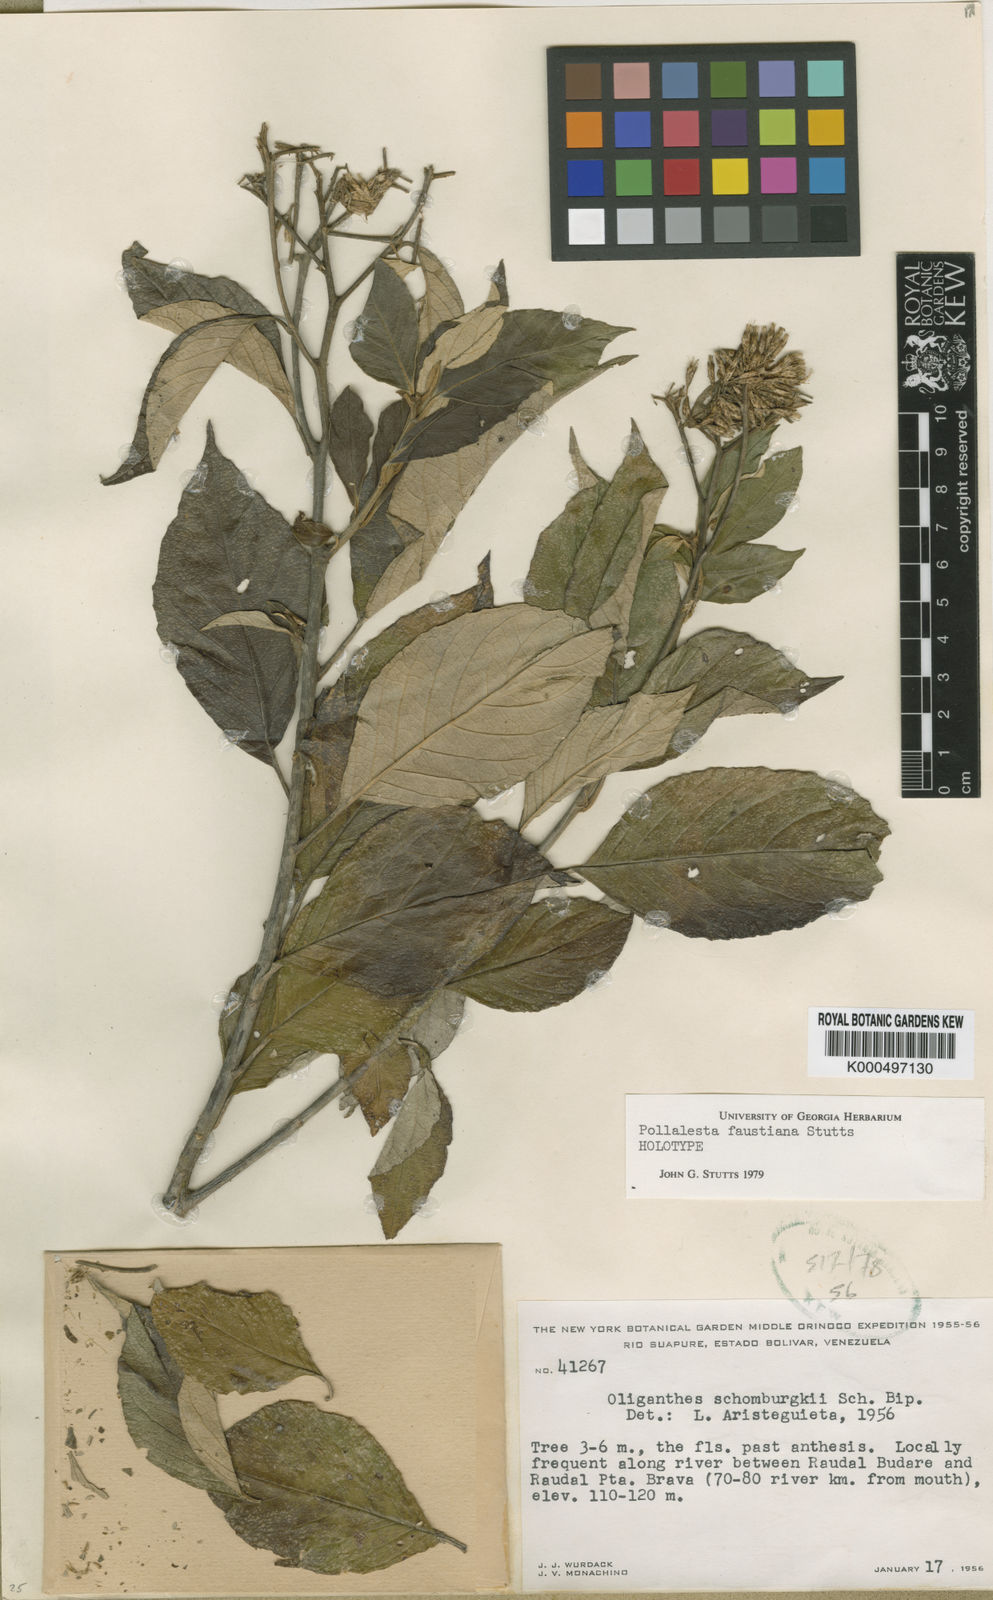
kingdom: Plantae
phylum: Tracheophyta
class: Magnoliopsida
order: Asterales
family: Asteraceae
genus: Piptocoma
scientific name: Piptocoma schomburgkii
